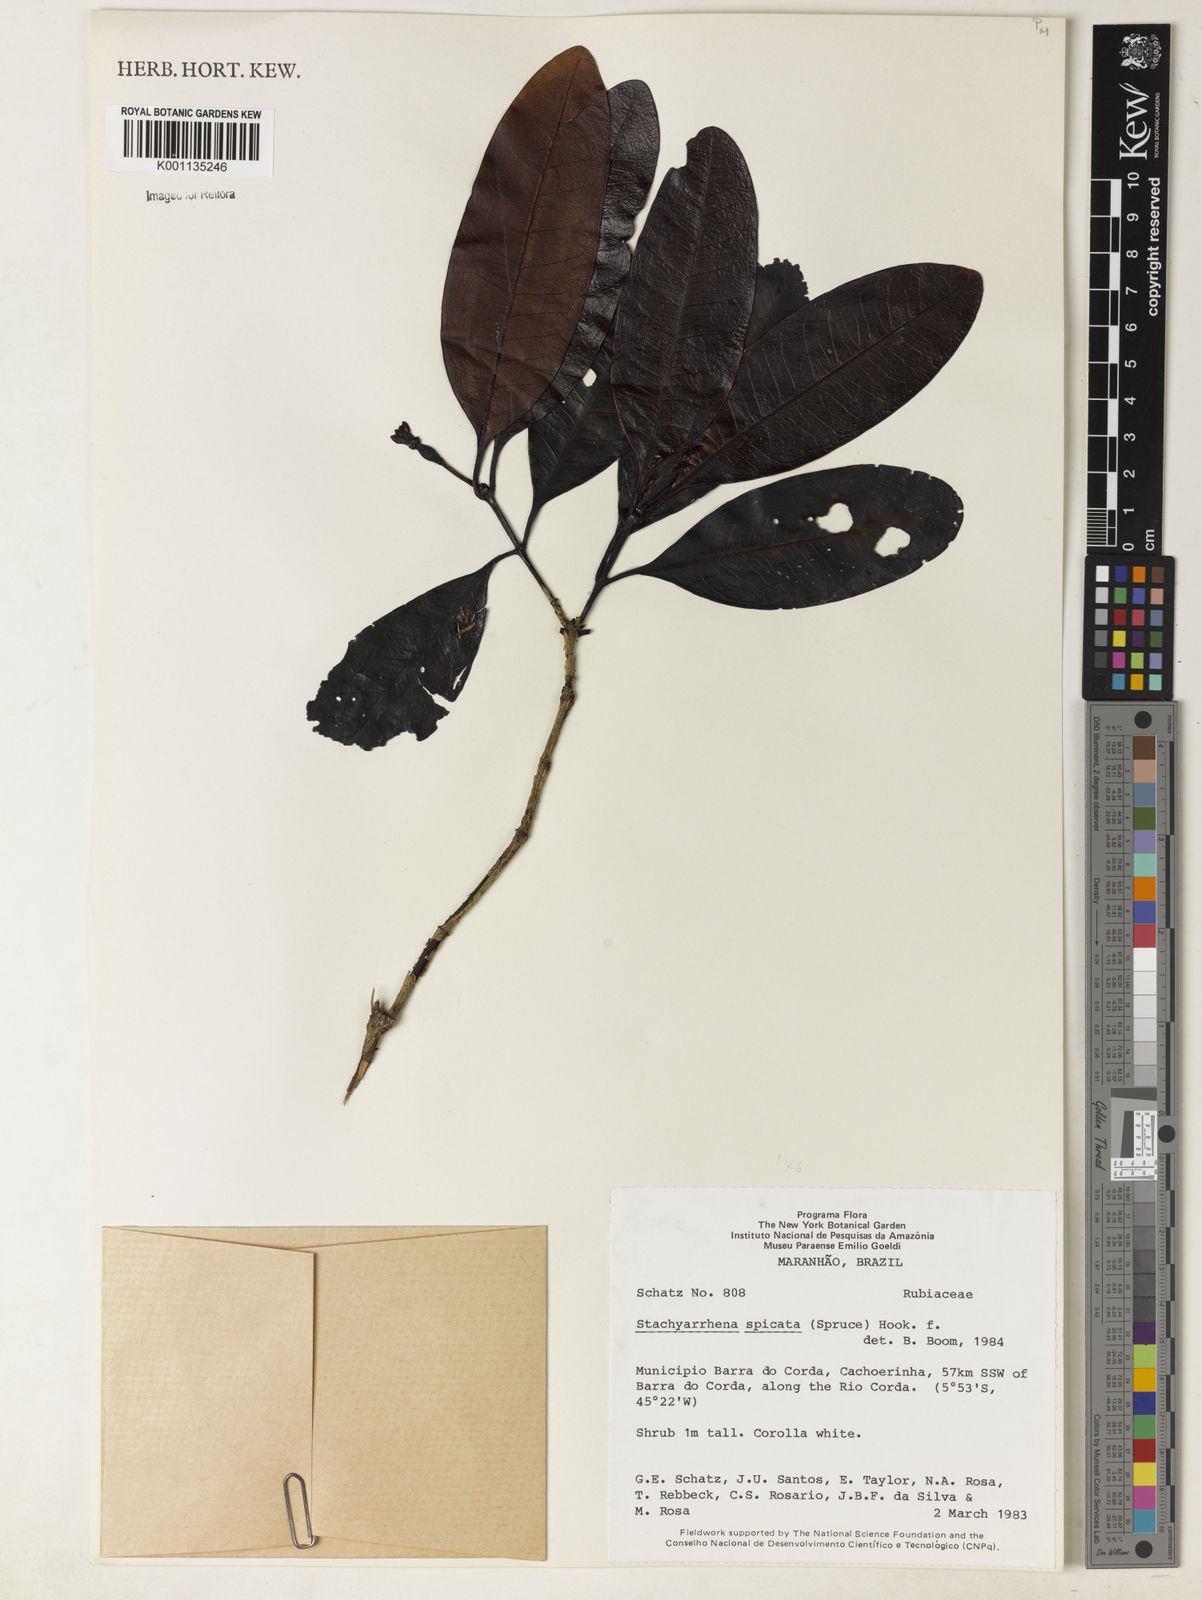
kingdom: Plantae
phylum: Tracheophyta
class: Magnoliopsida
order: Gentianales
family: Rubiaceae
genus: Stachyarrhena
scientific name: Stachyarrhena
